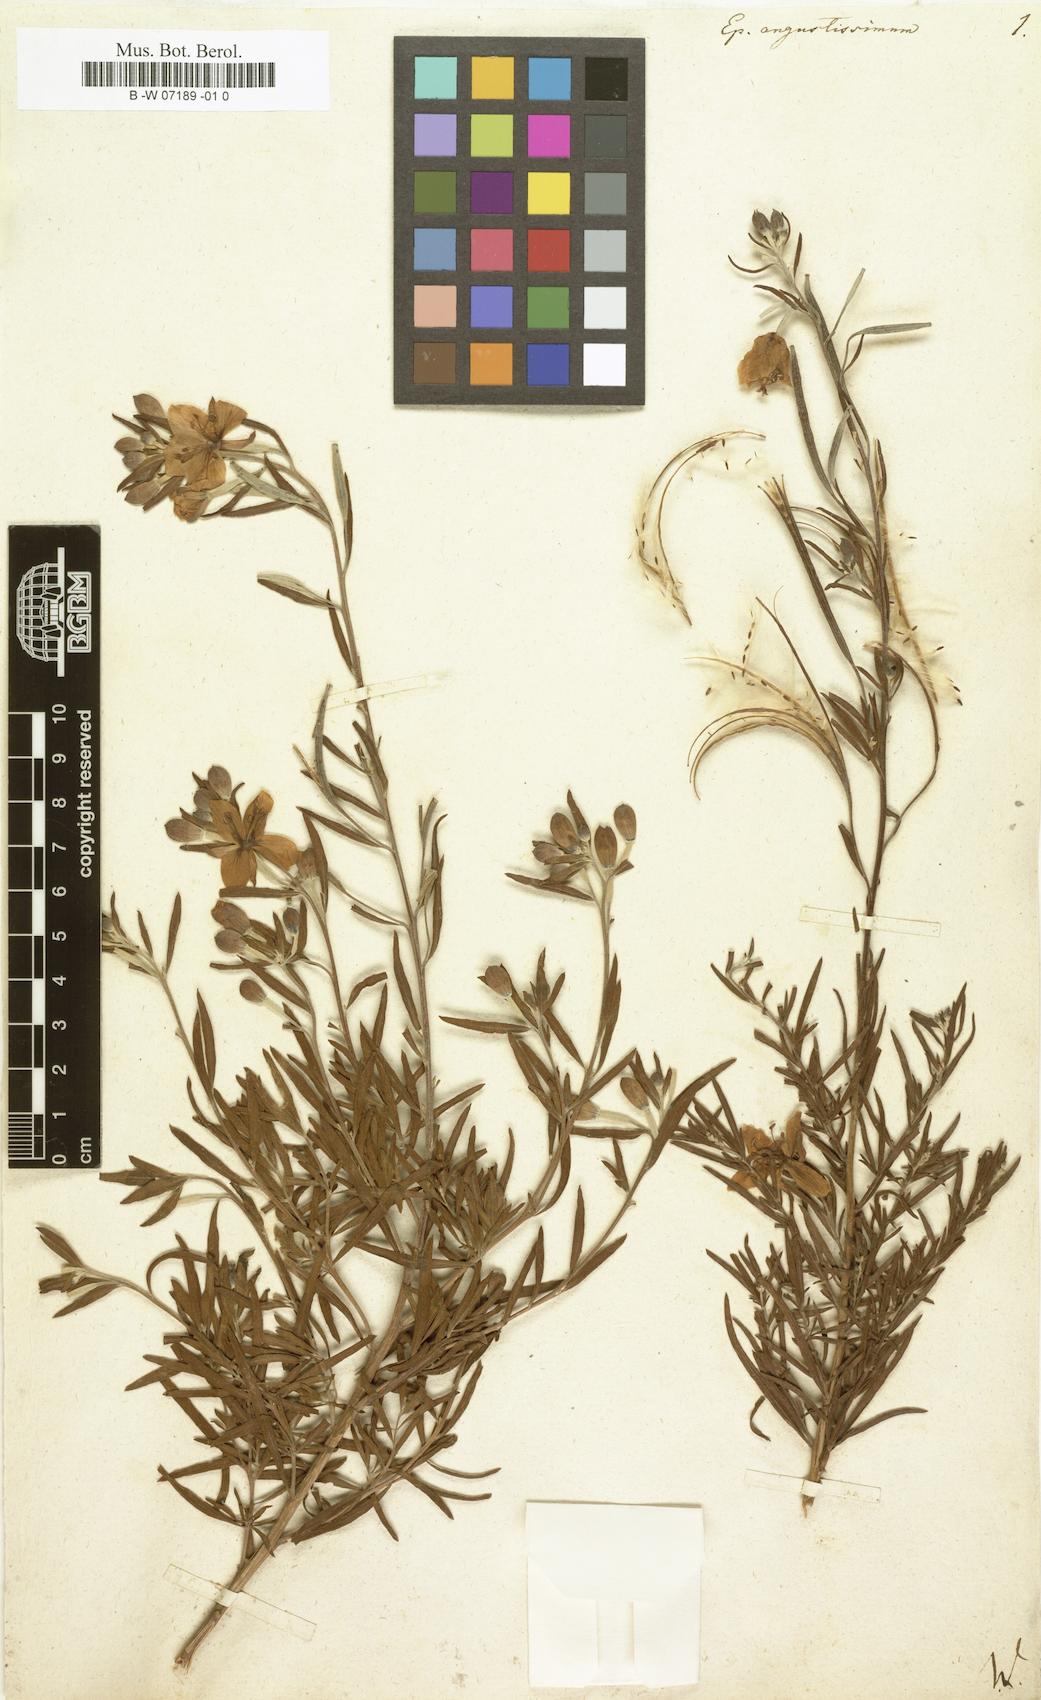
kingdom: Plantae
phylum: Tracheophyta
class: Magnoliopsida
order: Myrtales
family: Onagraceae
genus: Chamaenerion
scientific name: Chamaenerion dodonaei
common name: Rosemary-leaved willowherb
